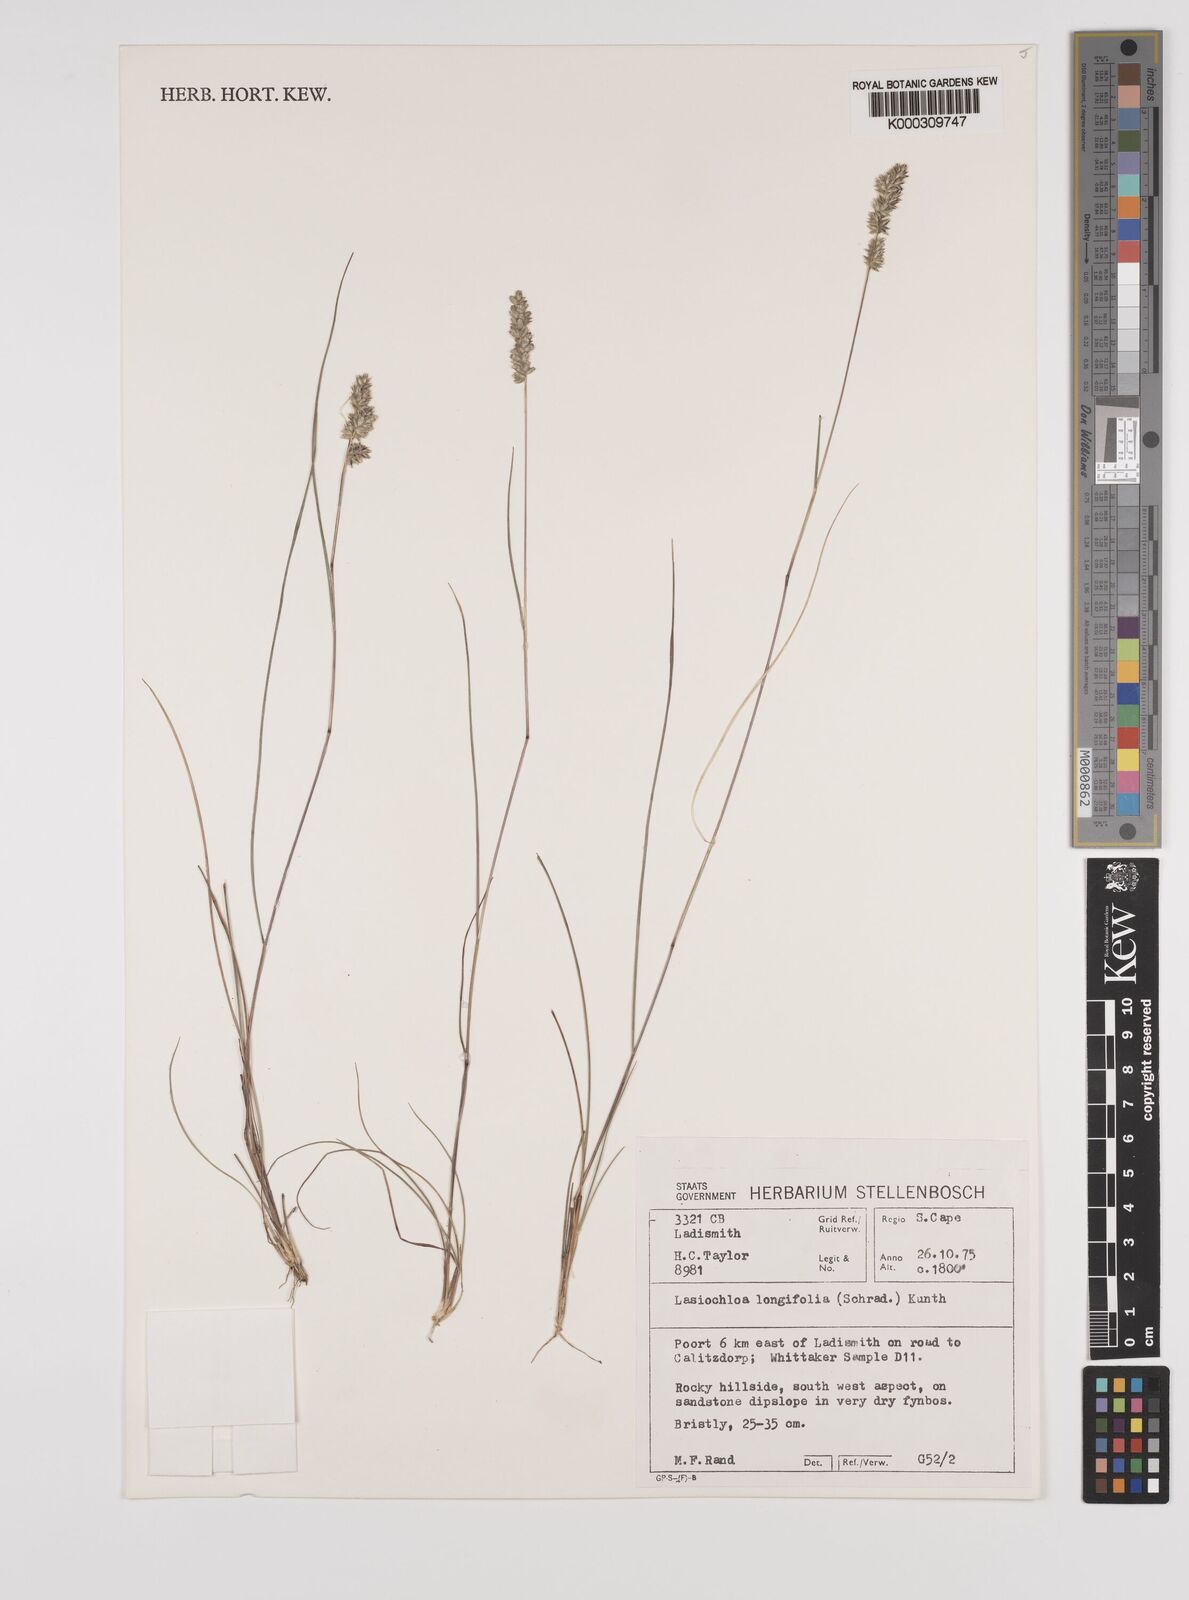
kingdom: Plantae
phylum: Tracheophyta
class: Liliopsida
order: Poales
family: Poaceae
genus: Tribolium
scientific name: Tribolium hispidum
